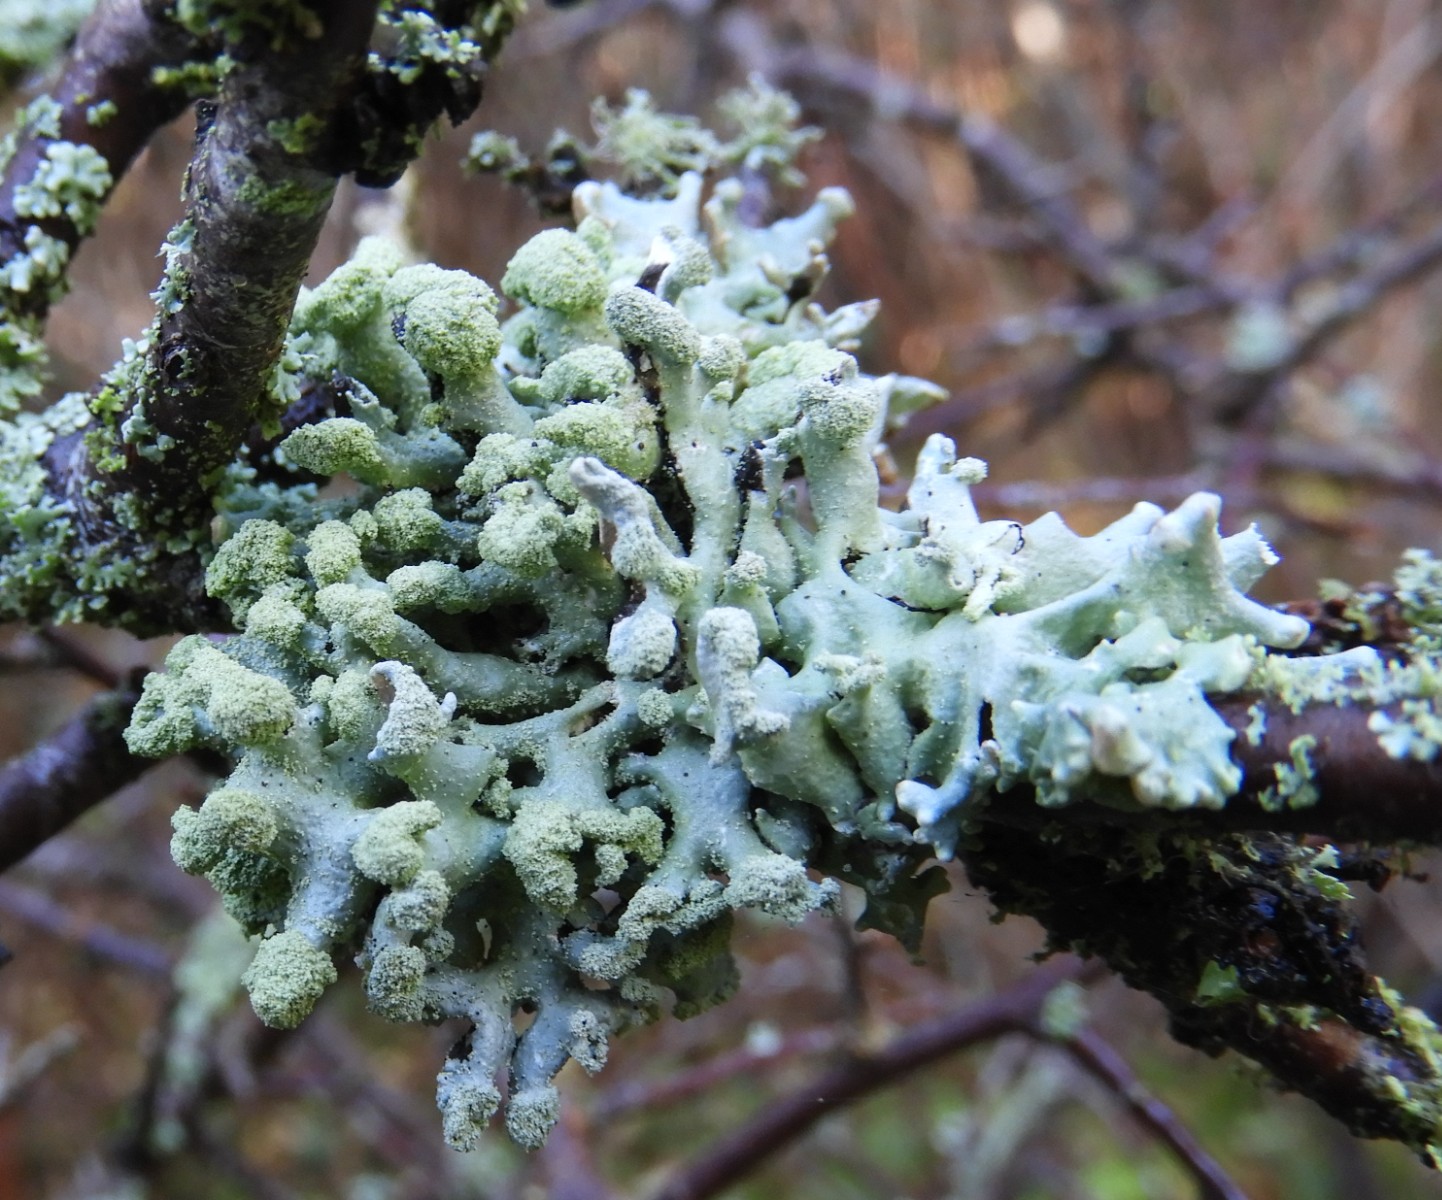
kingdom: Fungi
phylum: Ascomycota
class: Lecanoromycetes
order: Lecanorales
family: Parmeliaceae
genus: Hypogymnia
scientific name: Hypogymnia tubulosa
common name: finger-kvistlav
